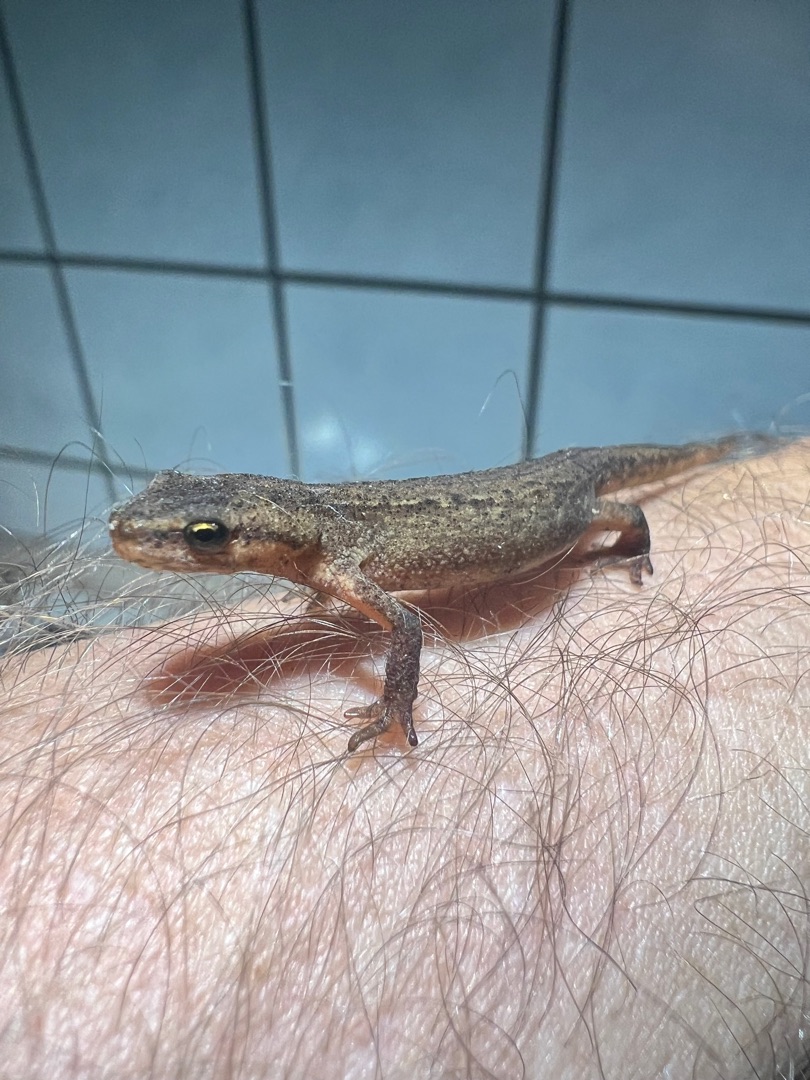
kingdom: Animalia
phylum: Chordata
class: Amphibia
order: Caudata
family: Salamandridae
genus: Lissotriton
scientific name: Lissotriton vulgaris
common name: Lille vandsalamander
